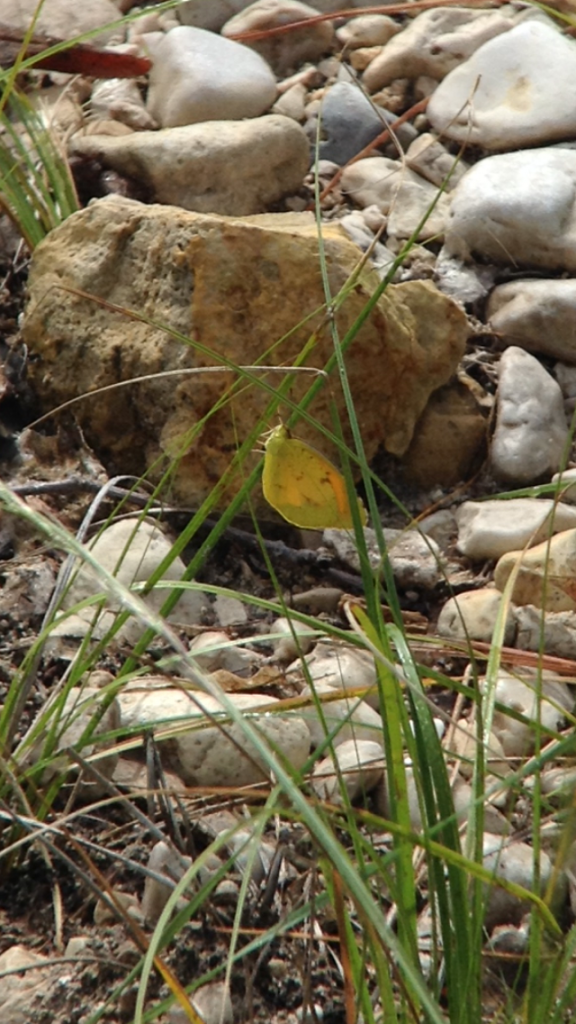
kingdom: Animalia
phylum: Arthropoda
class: Insecta
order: Lepidoptera
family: Pieridae
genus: Colias
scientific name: Colias eurytheme
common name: Orange Sulphur
